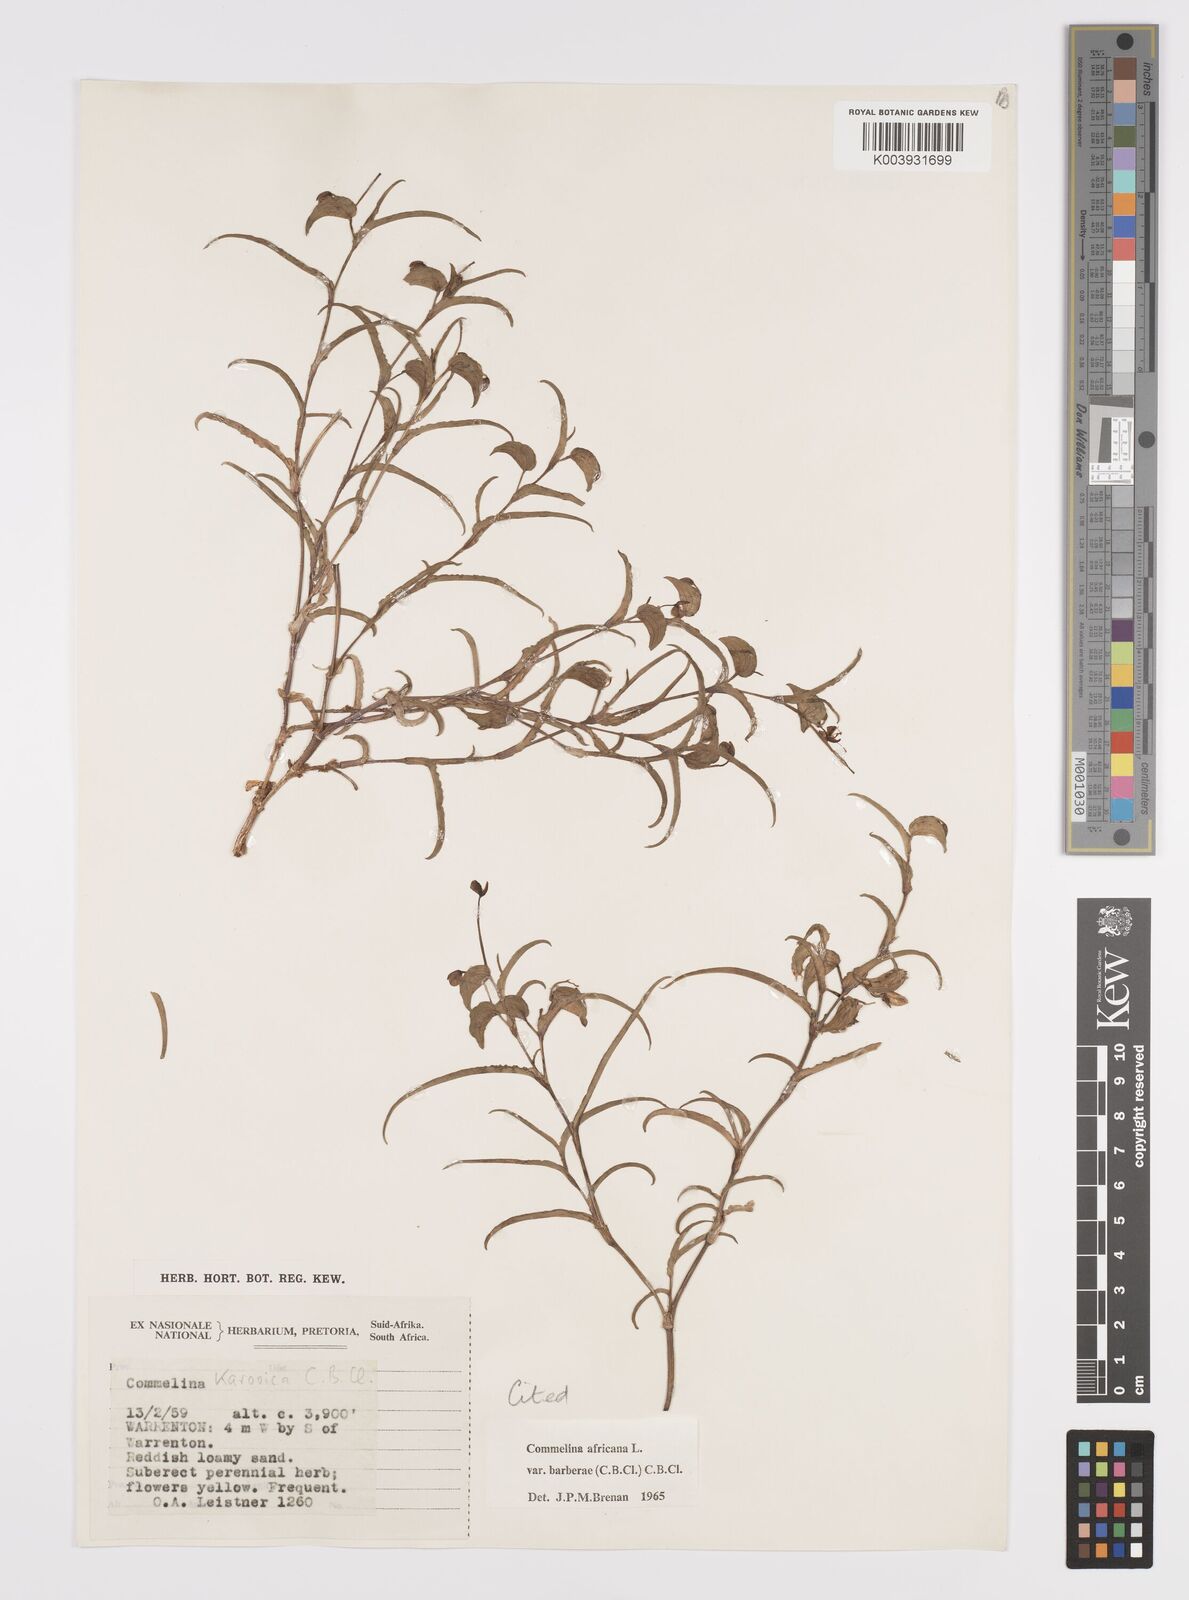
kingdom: Plantae
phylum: Tracheophyta
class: Liliopsida
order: Commelinales
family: Commelinaceae
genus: Commelina
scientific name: Commelina africana
